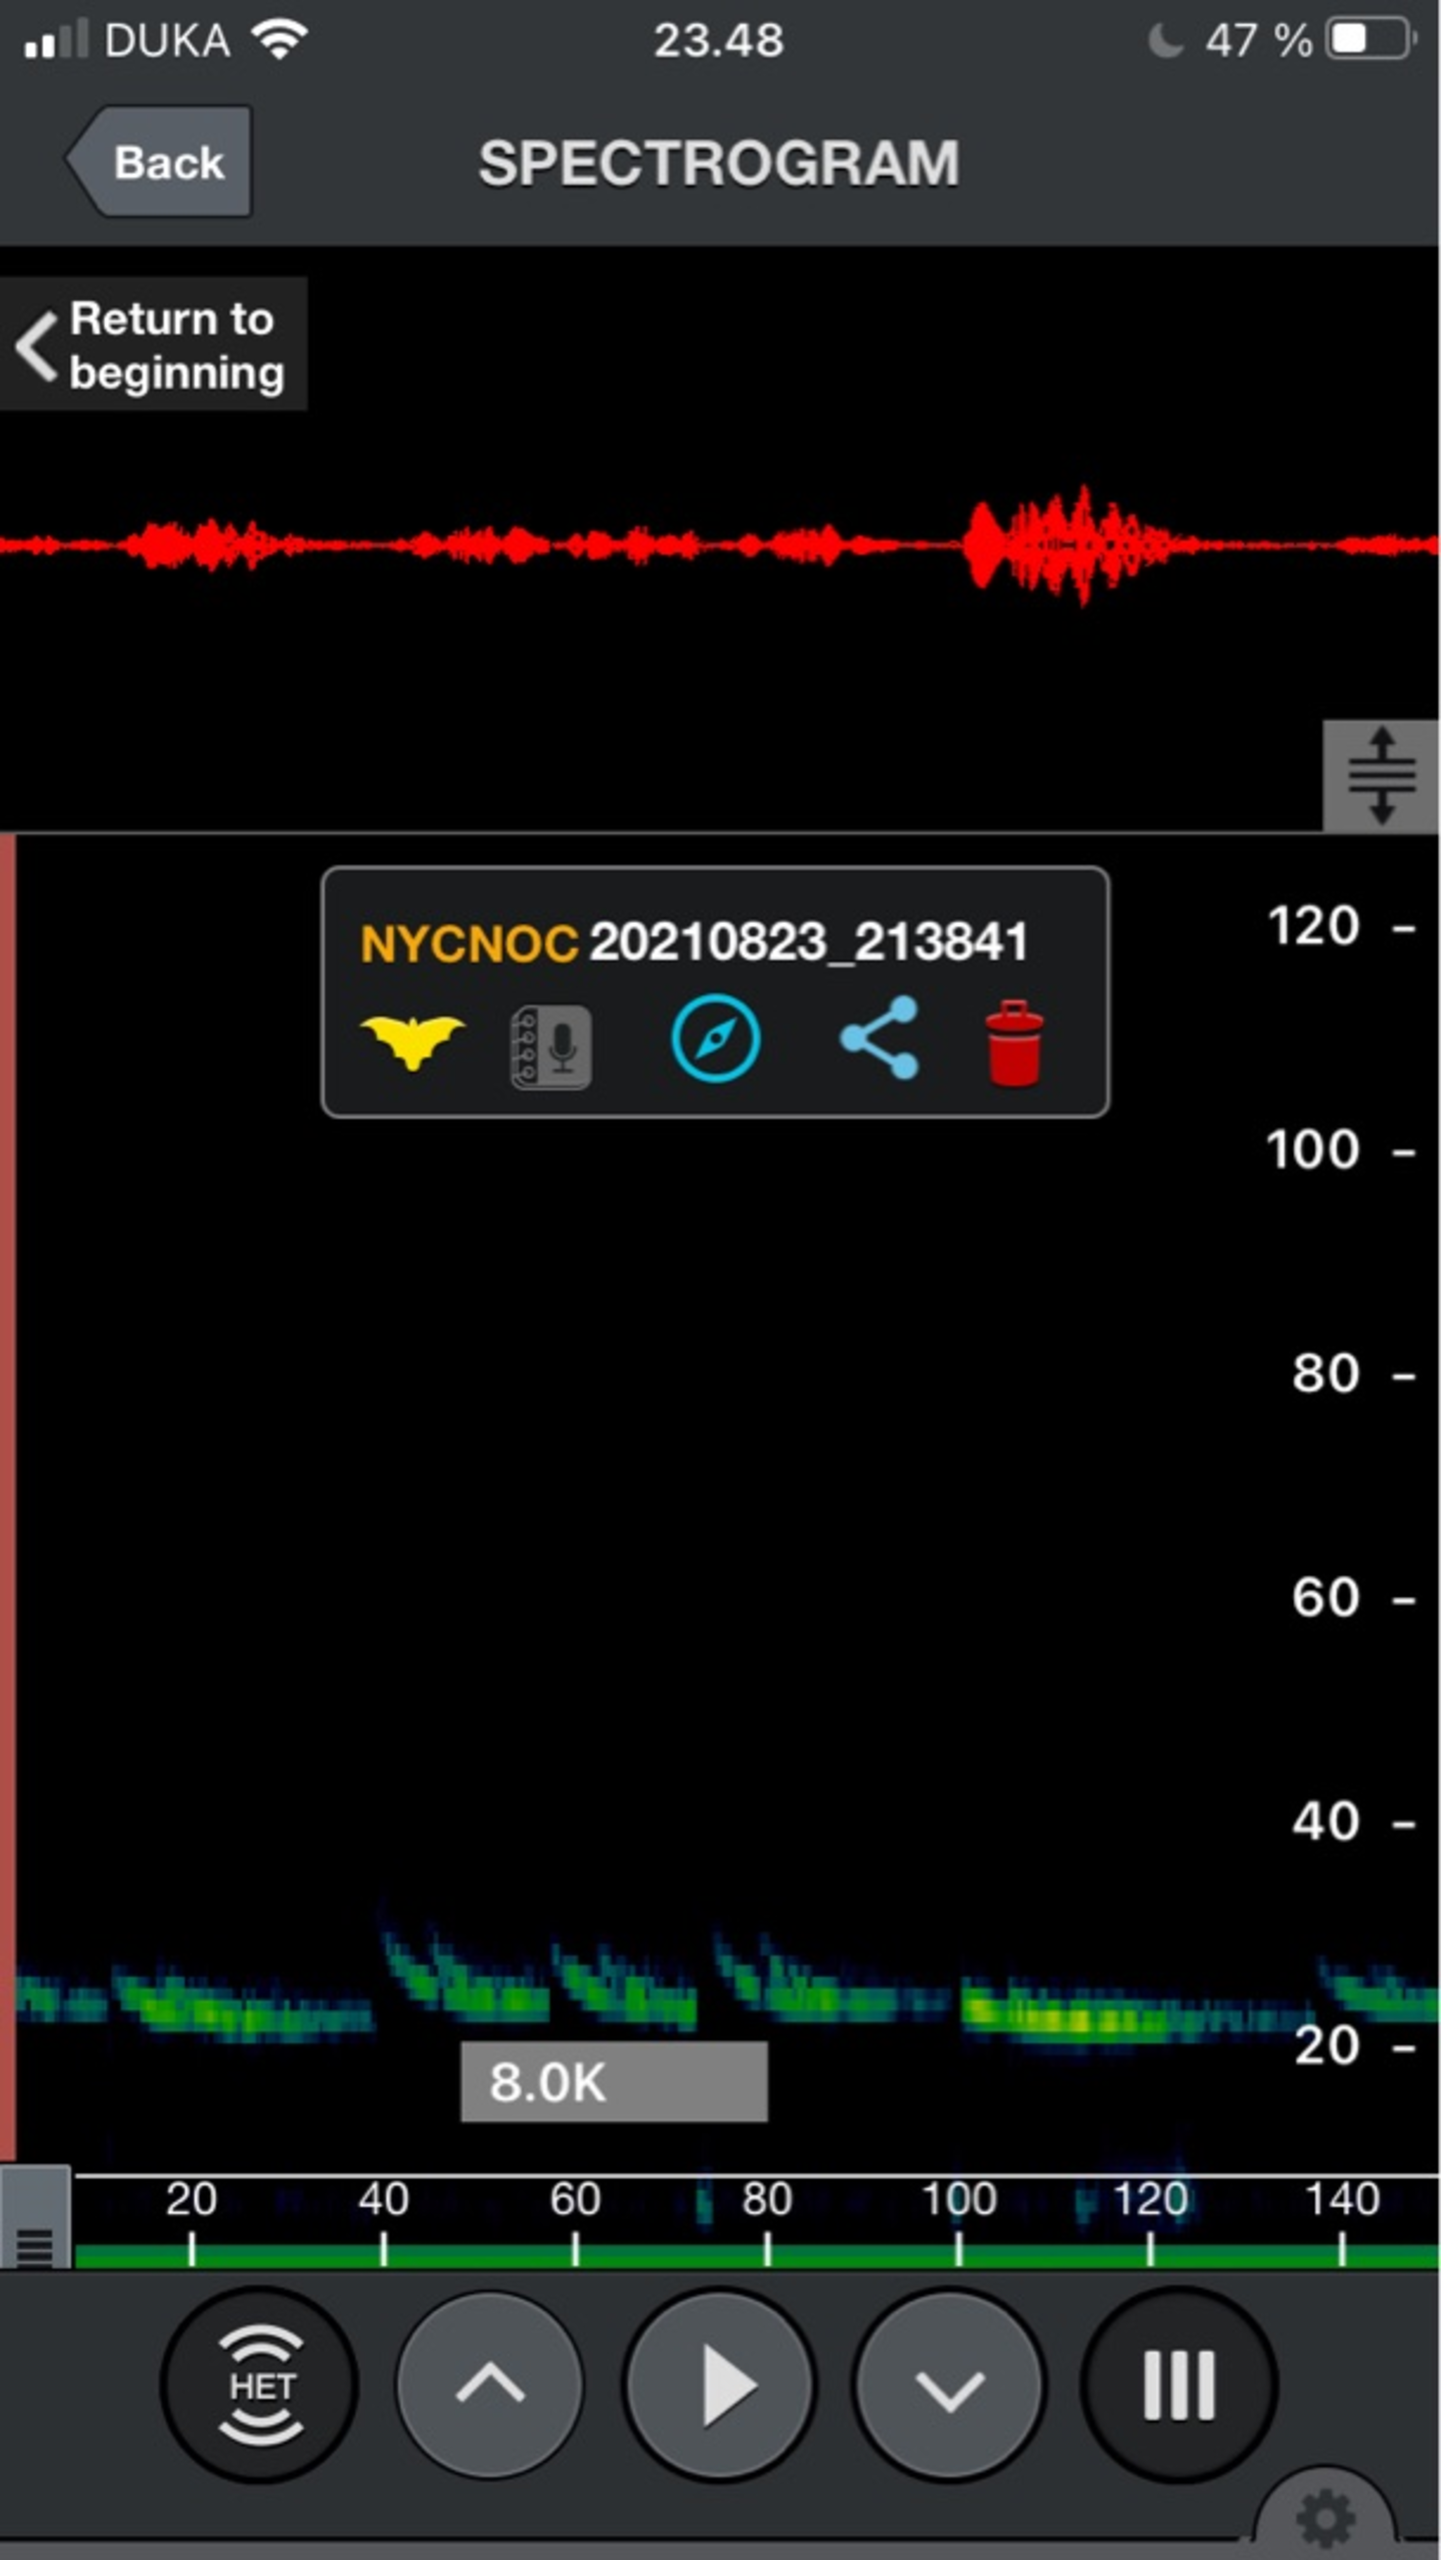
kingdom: Animalia
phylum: Chordata
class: Mammalia
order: Chiroptera
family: Vespertilionidae
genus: Nyctalus
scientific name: Nyctalus noctula
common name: Brunflagermus
